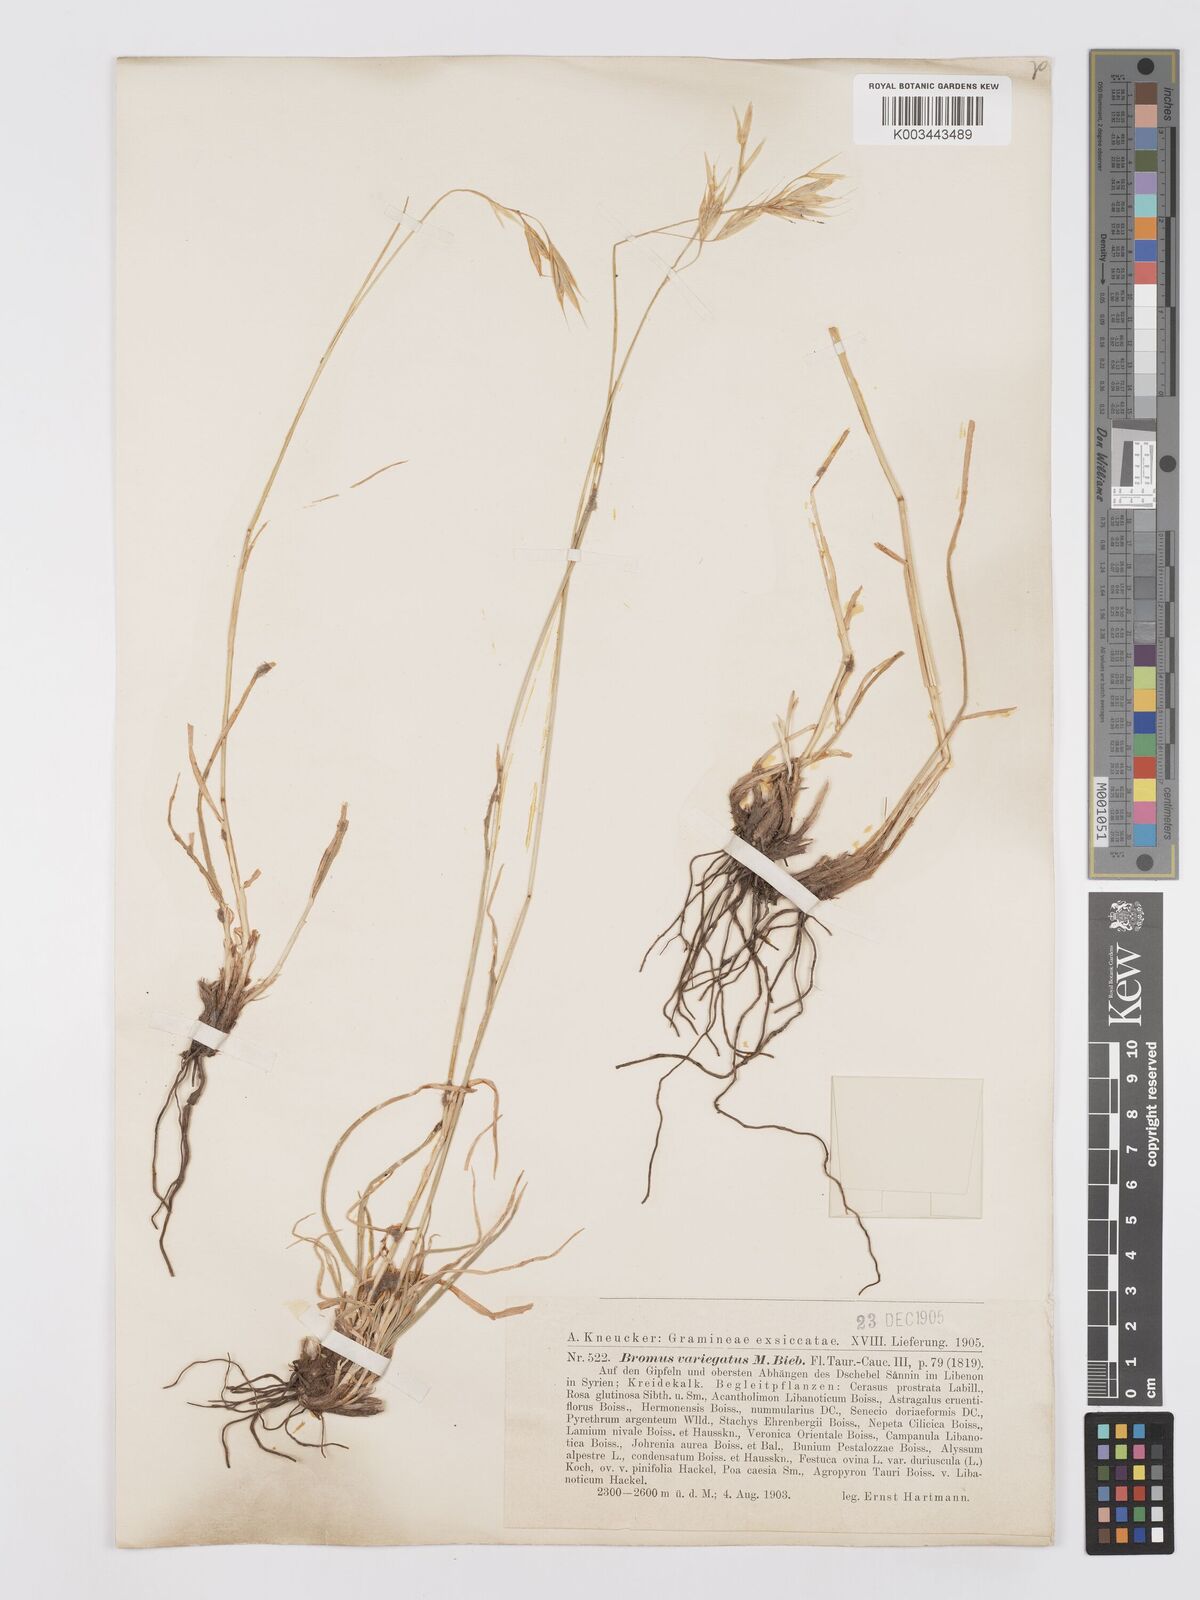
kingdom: Plantae
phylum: Tracheophyta
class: Liliopsida
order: Poales
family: Poaceae
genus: Bromus
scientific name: Bromus tomentellus
